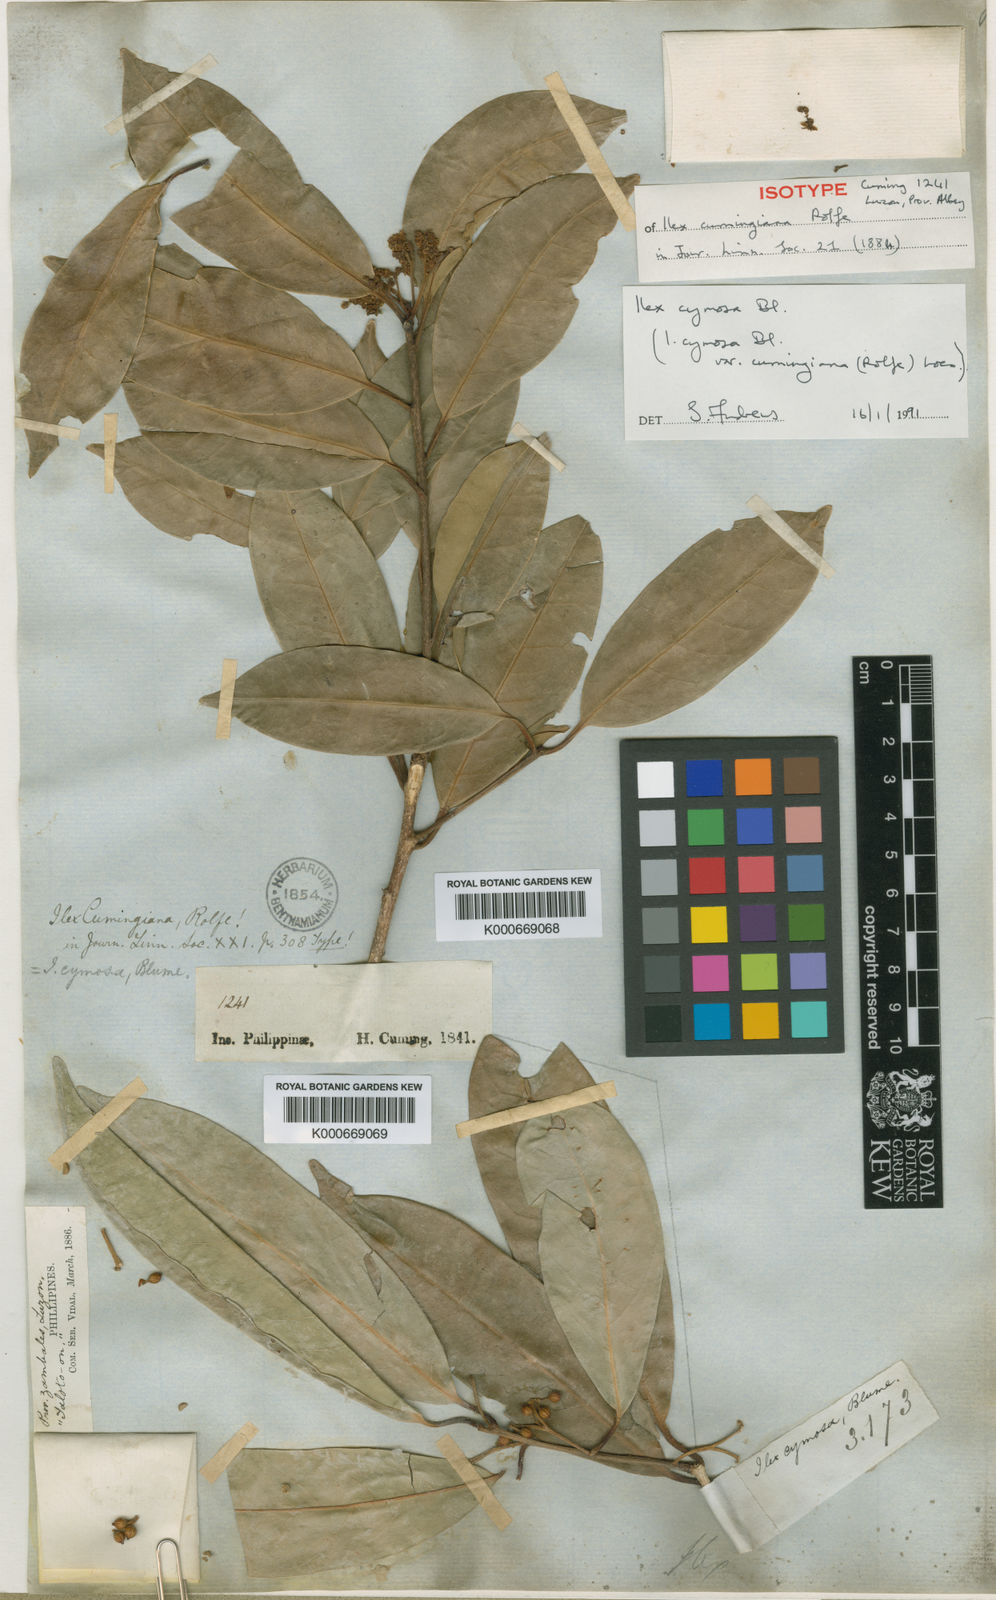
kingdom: Plantae
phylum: Tracheophyta
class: Magnoliopsida
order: Aquifoliales
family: Aquifoliaceae
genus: Ilex
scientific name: Ilex cymosa
